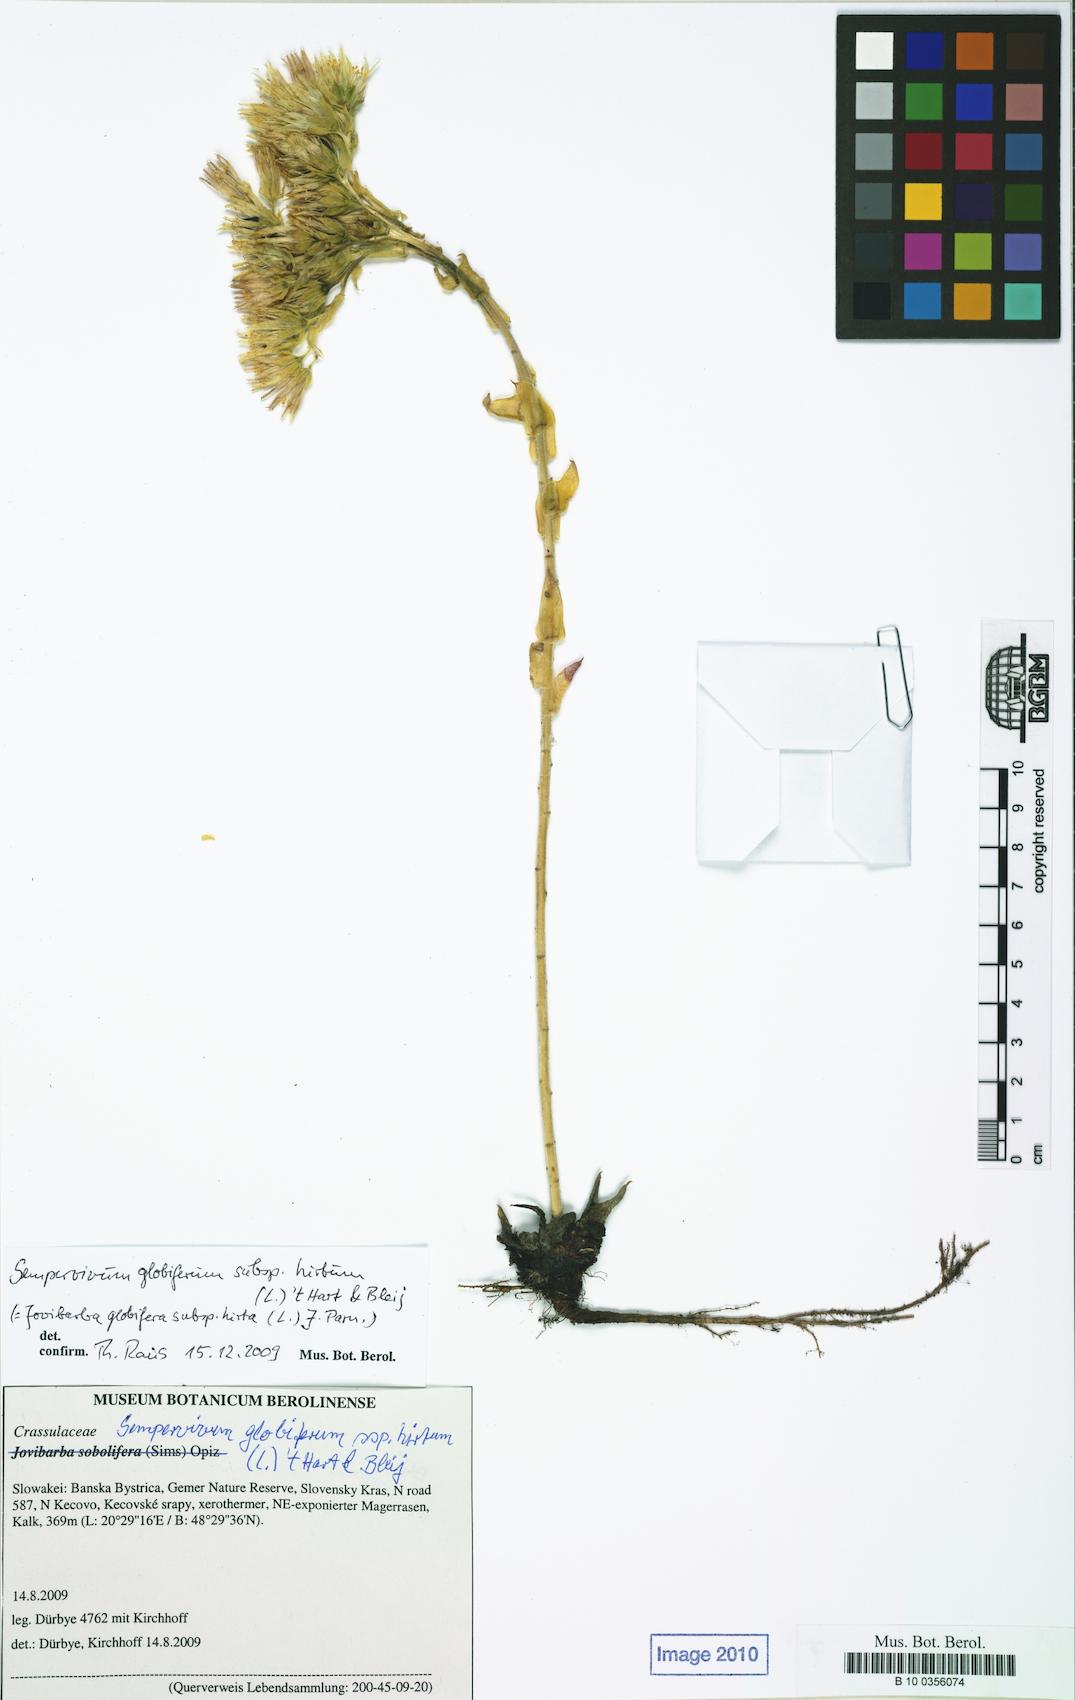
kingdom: Plantae
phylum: Tracheophyta
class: Magnoliopsida
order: Saxifragales
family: Crassulaceae
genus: Sempervivum
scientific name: Sempervivum globiferum
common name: Rolling hen-and-chicks
